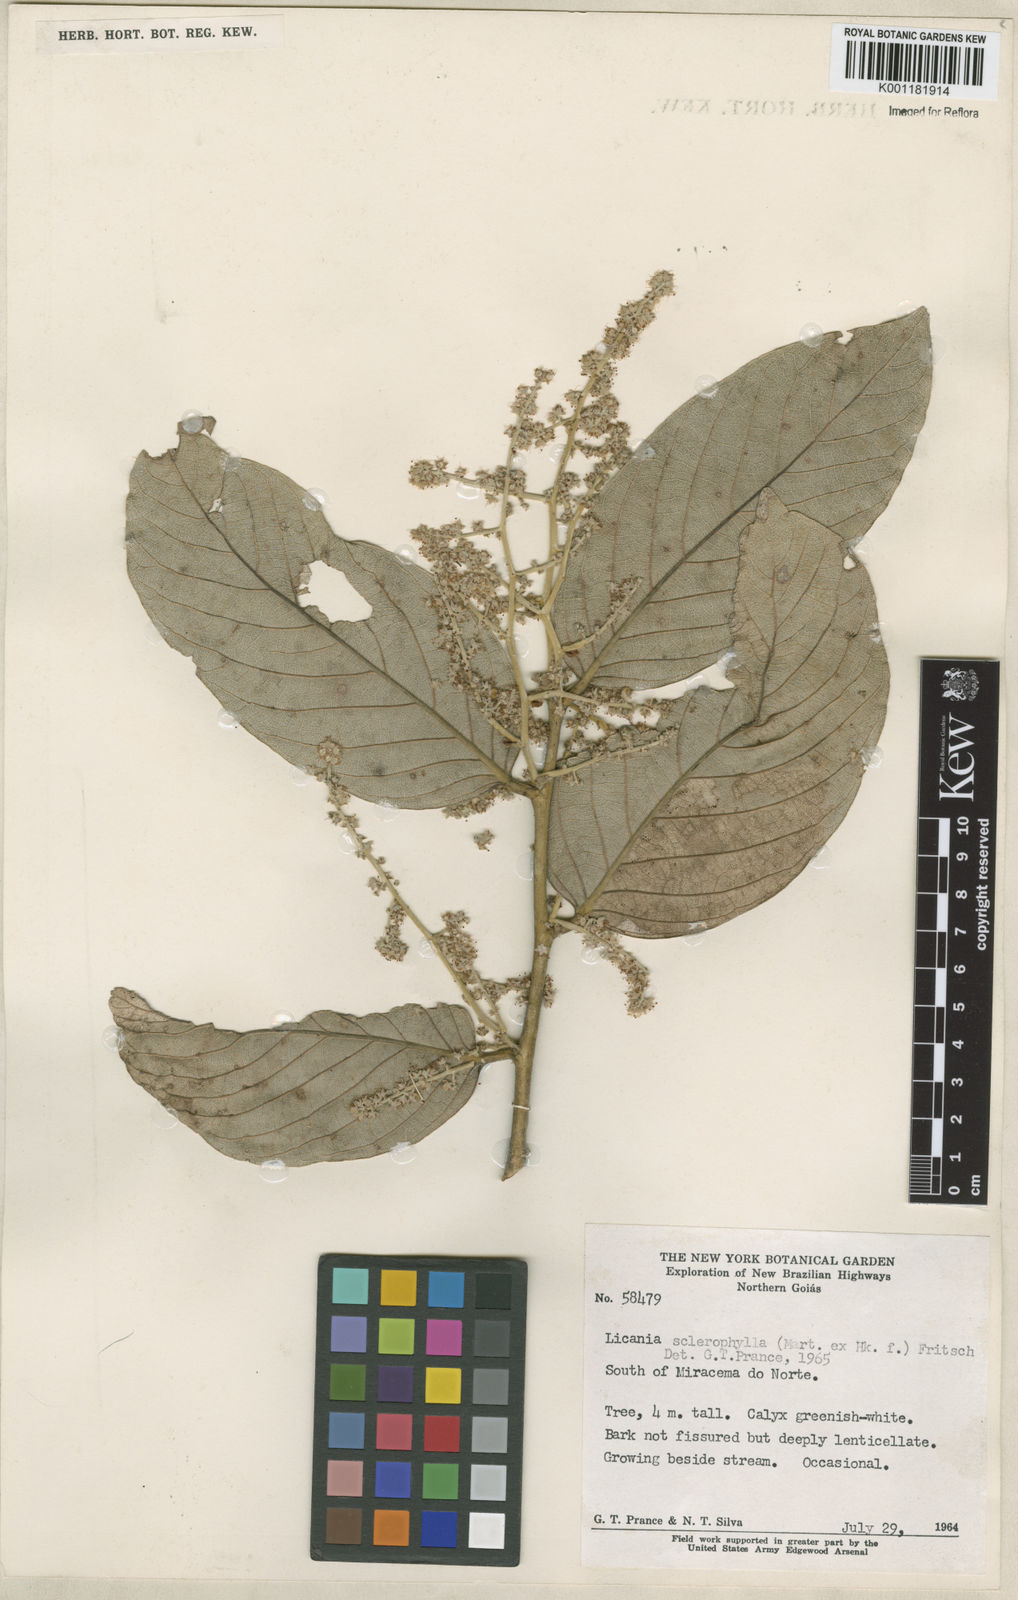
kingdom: Plantae
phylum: Tracheophyta
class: Magnoliopsida
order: Malpighiales
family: Chrysobalanaceae
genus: Leptobalanus
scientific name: Leptobalanus sclerophyllus
